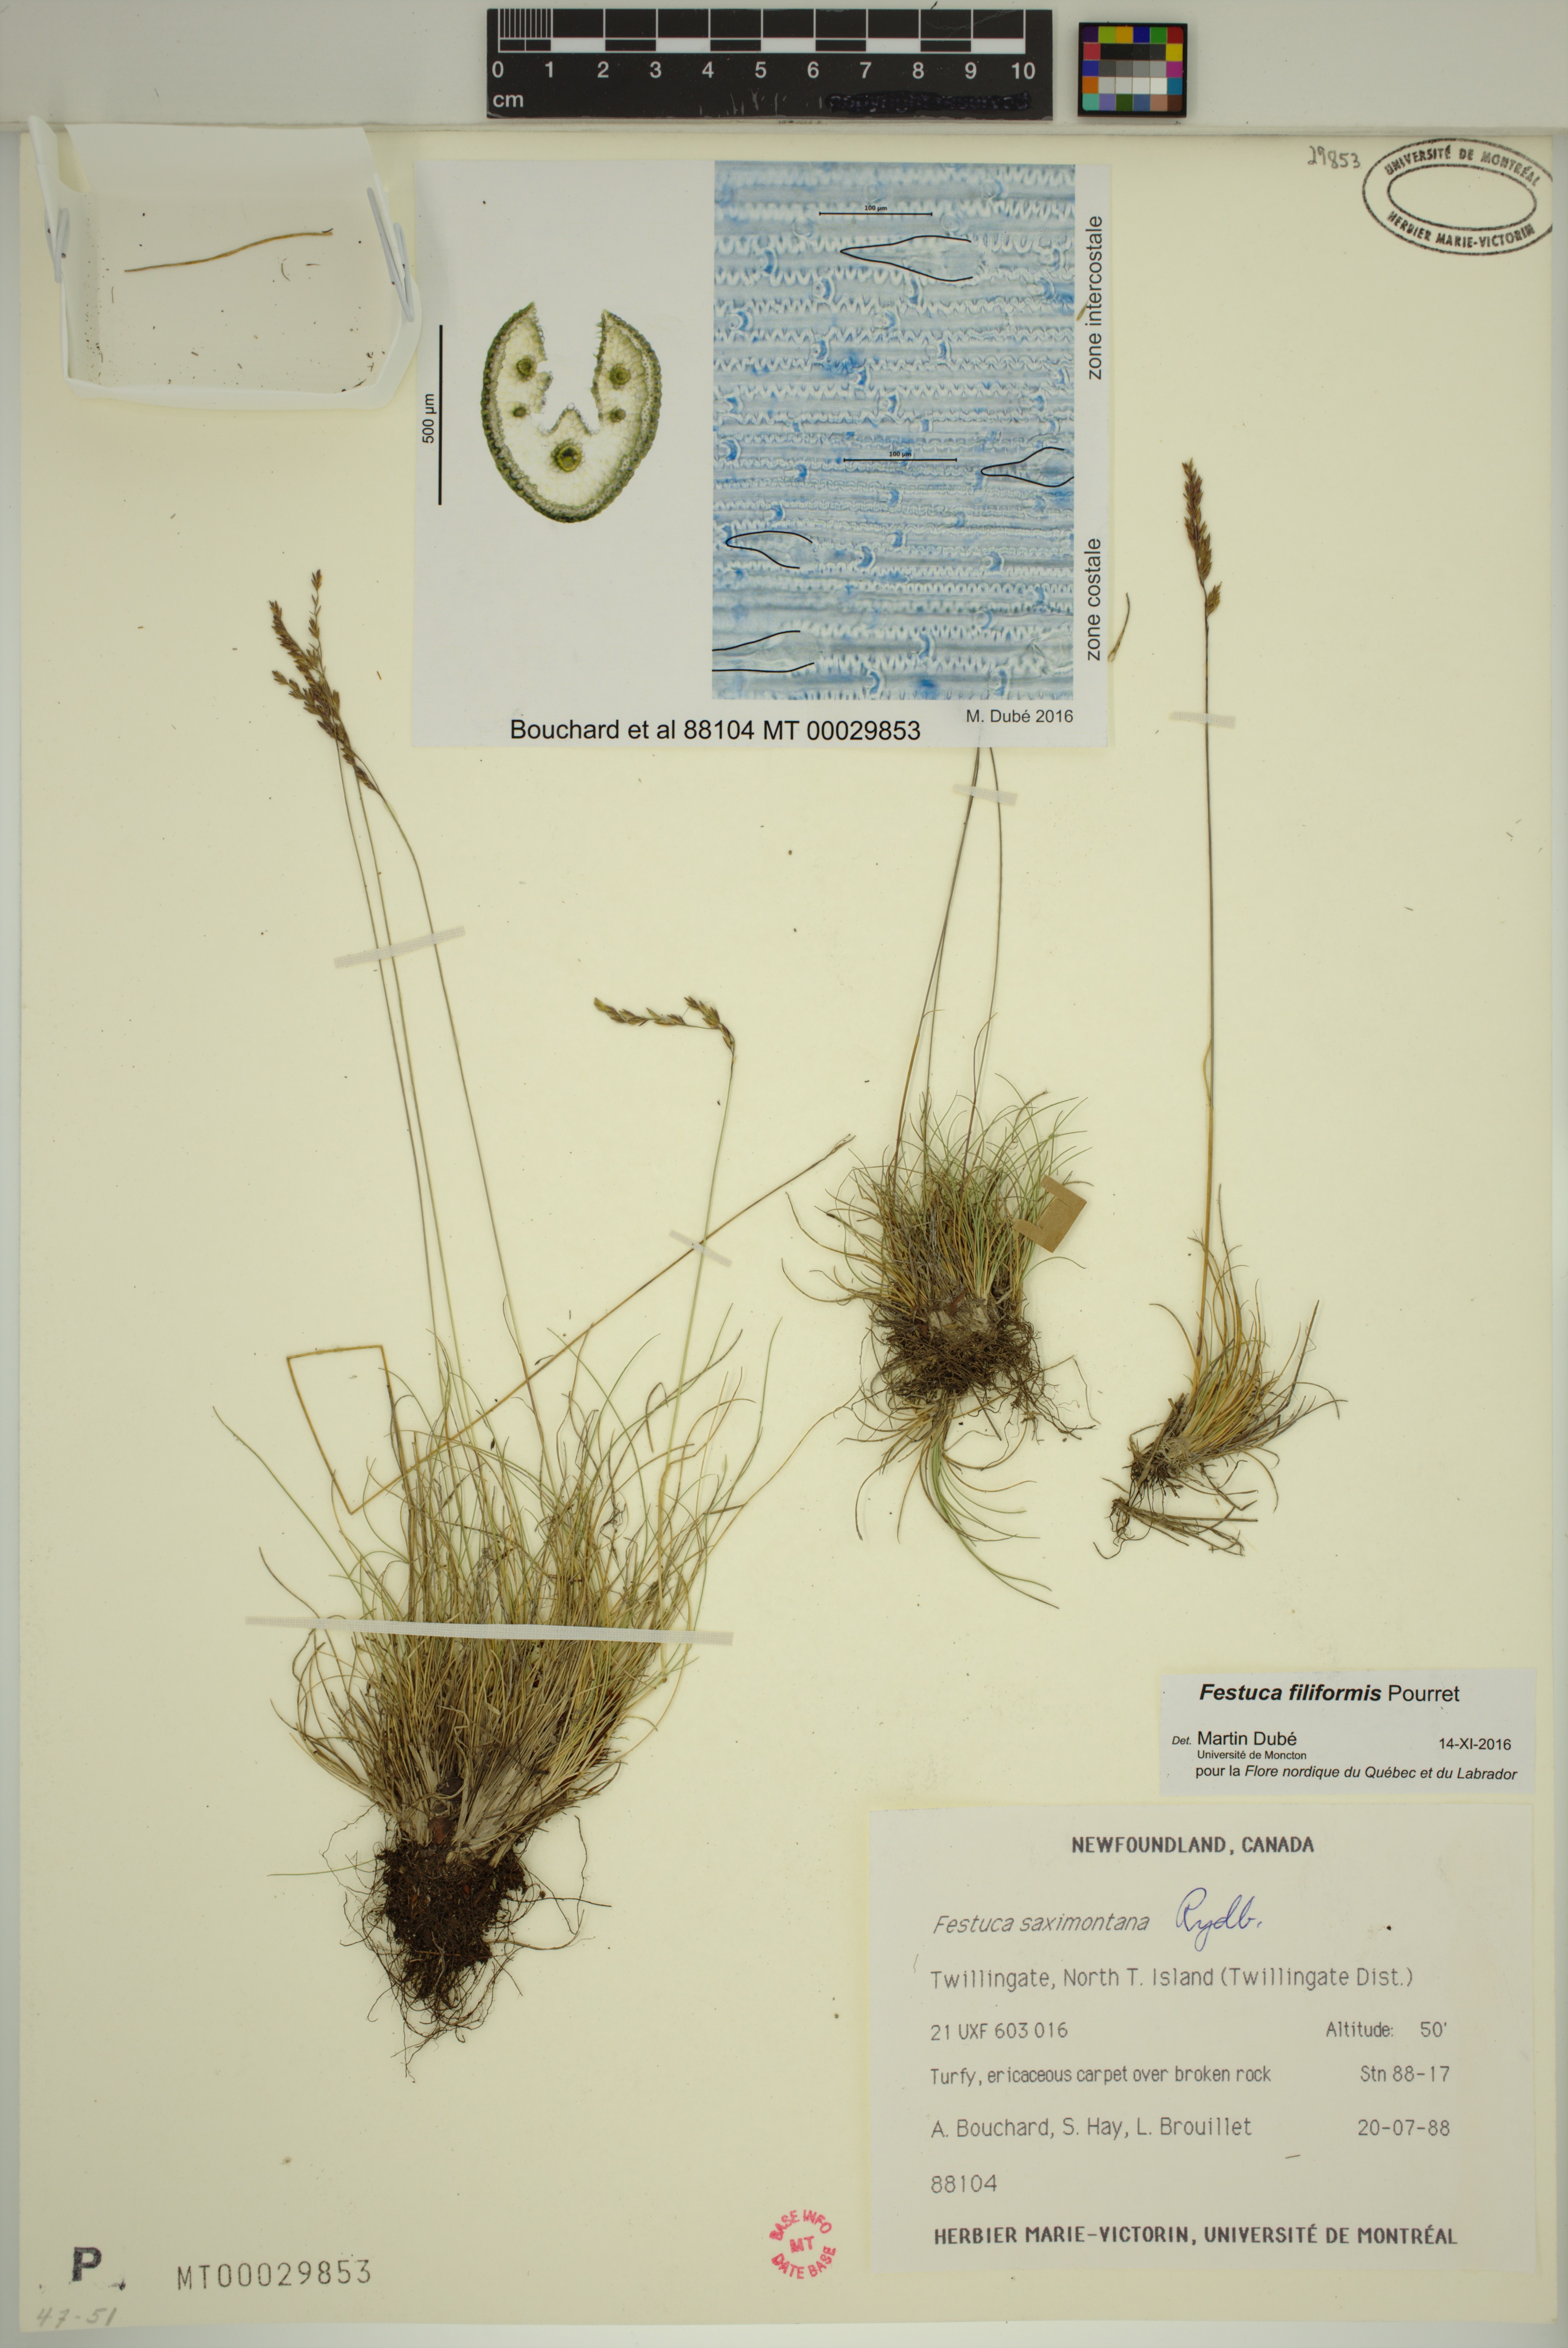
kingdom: Plantae
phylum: Tracheophyta
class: Liliopsida
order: Poales
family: Poaceae
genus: Festuca
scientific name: Festuca filiformis
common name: Fine-leaved sheep's-fescue
